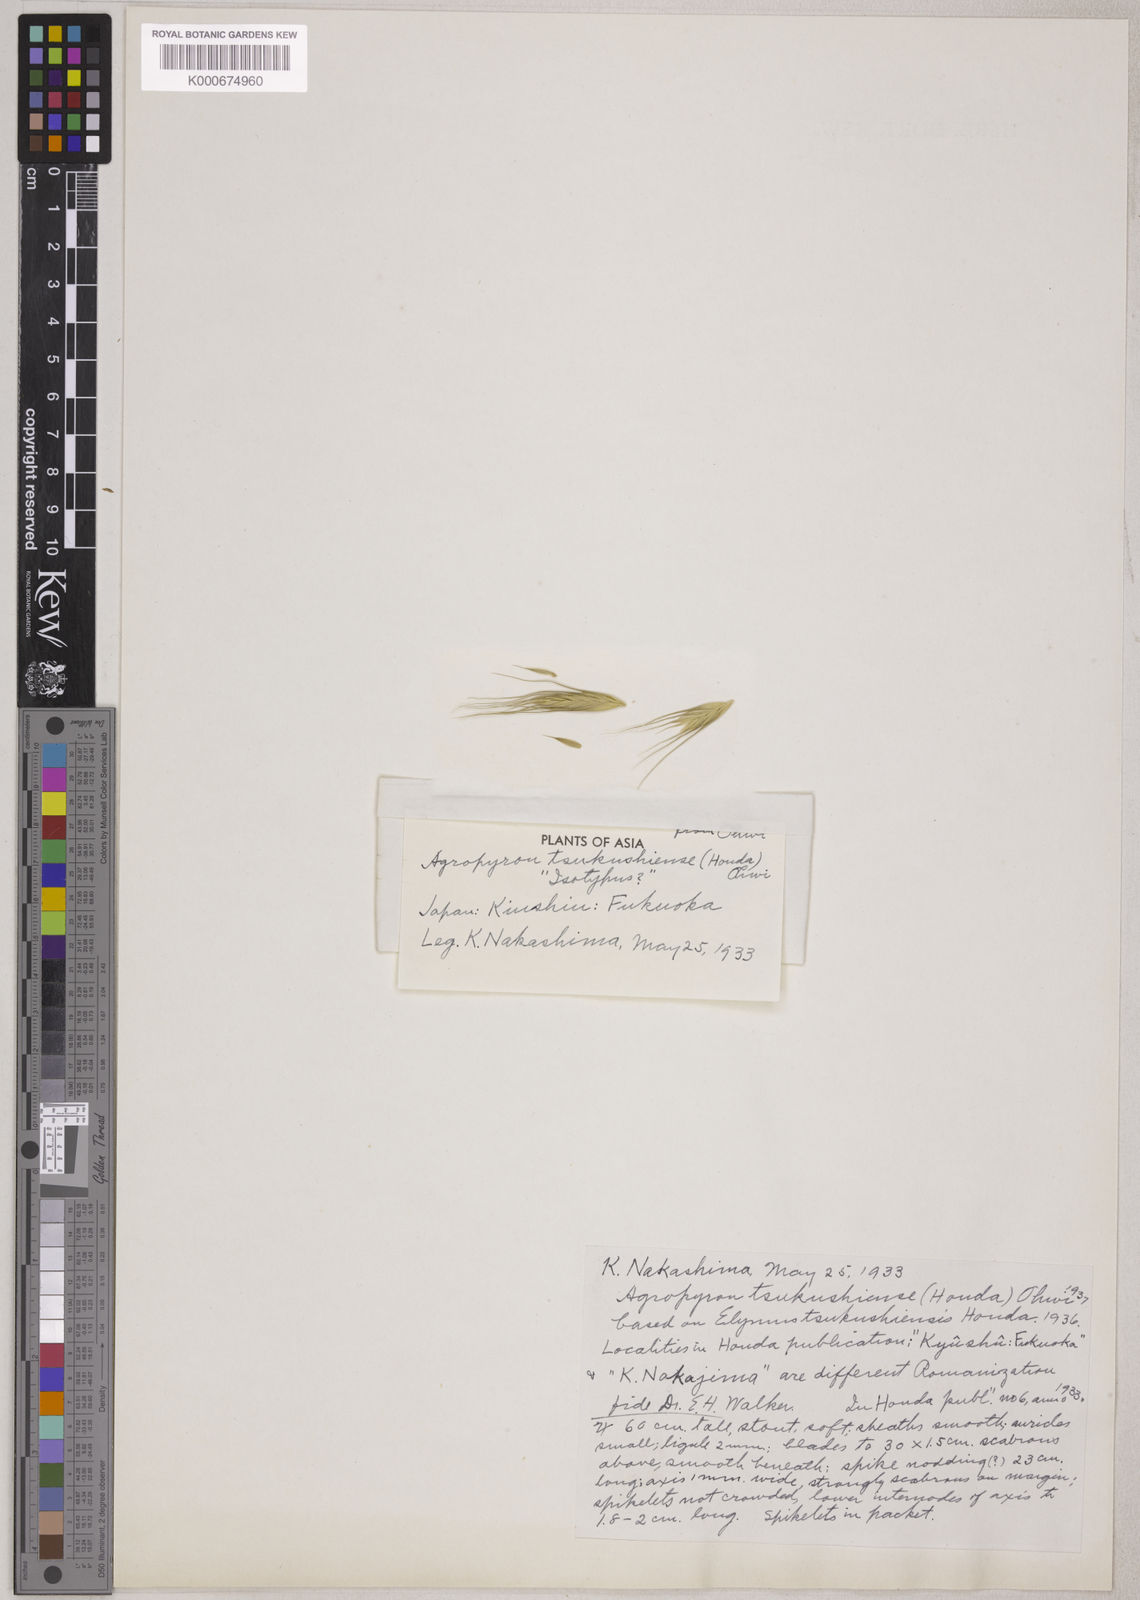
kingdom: Plantae
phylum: Tracheophyta
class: Liliopsida
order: Poales
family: Poaceae
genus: Elymus
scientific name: Elymus tsukushiensis
